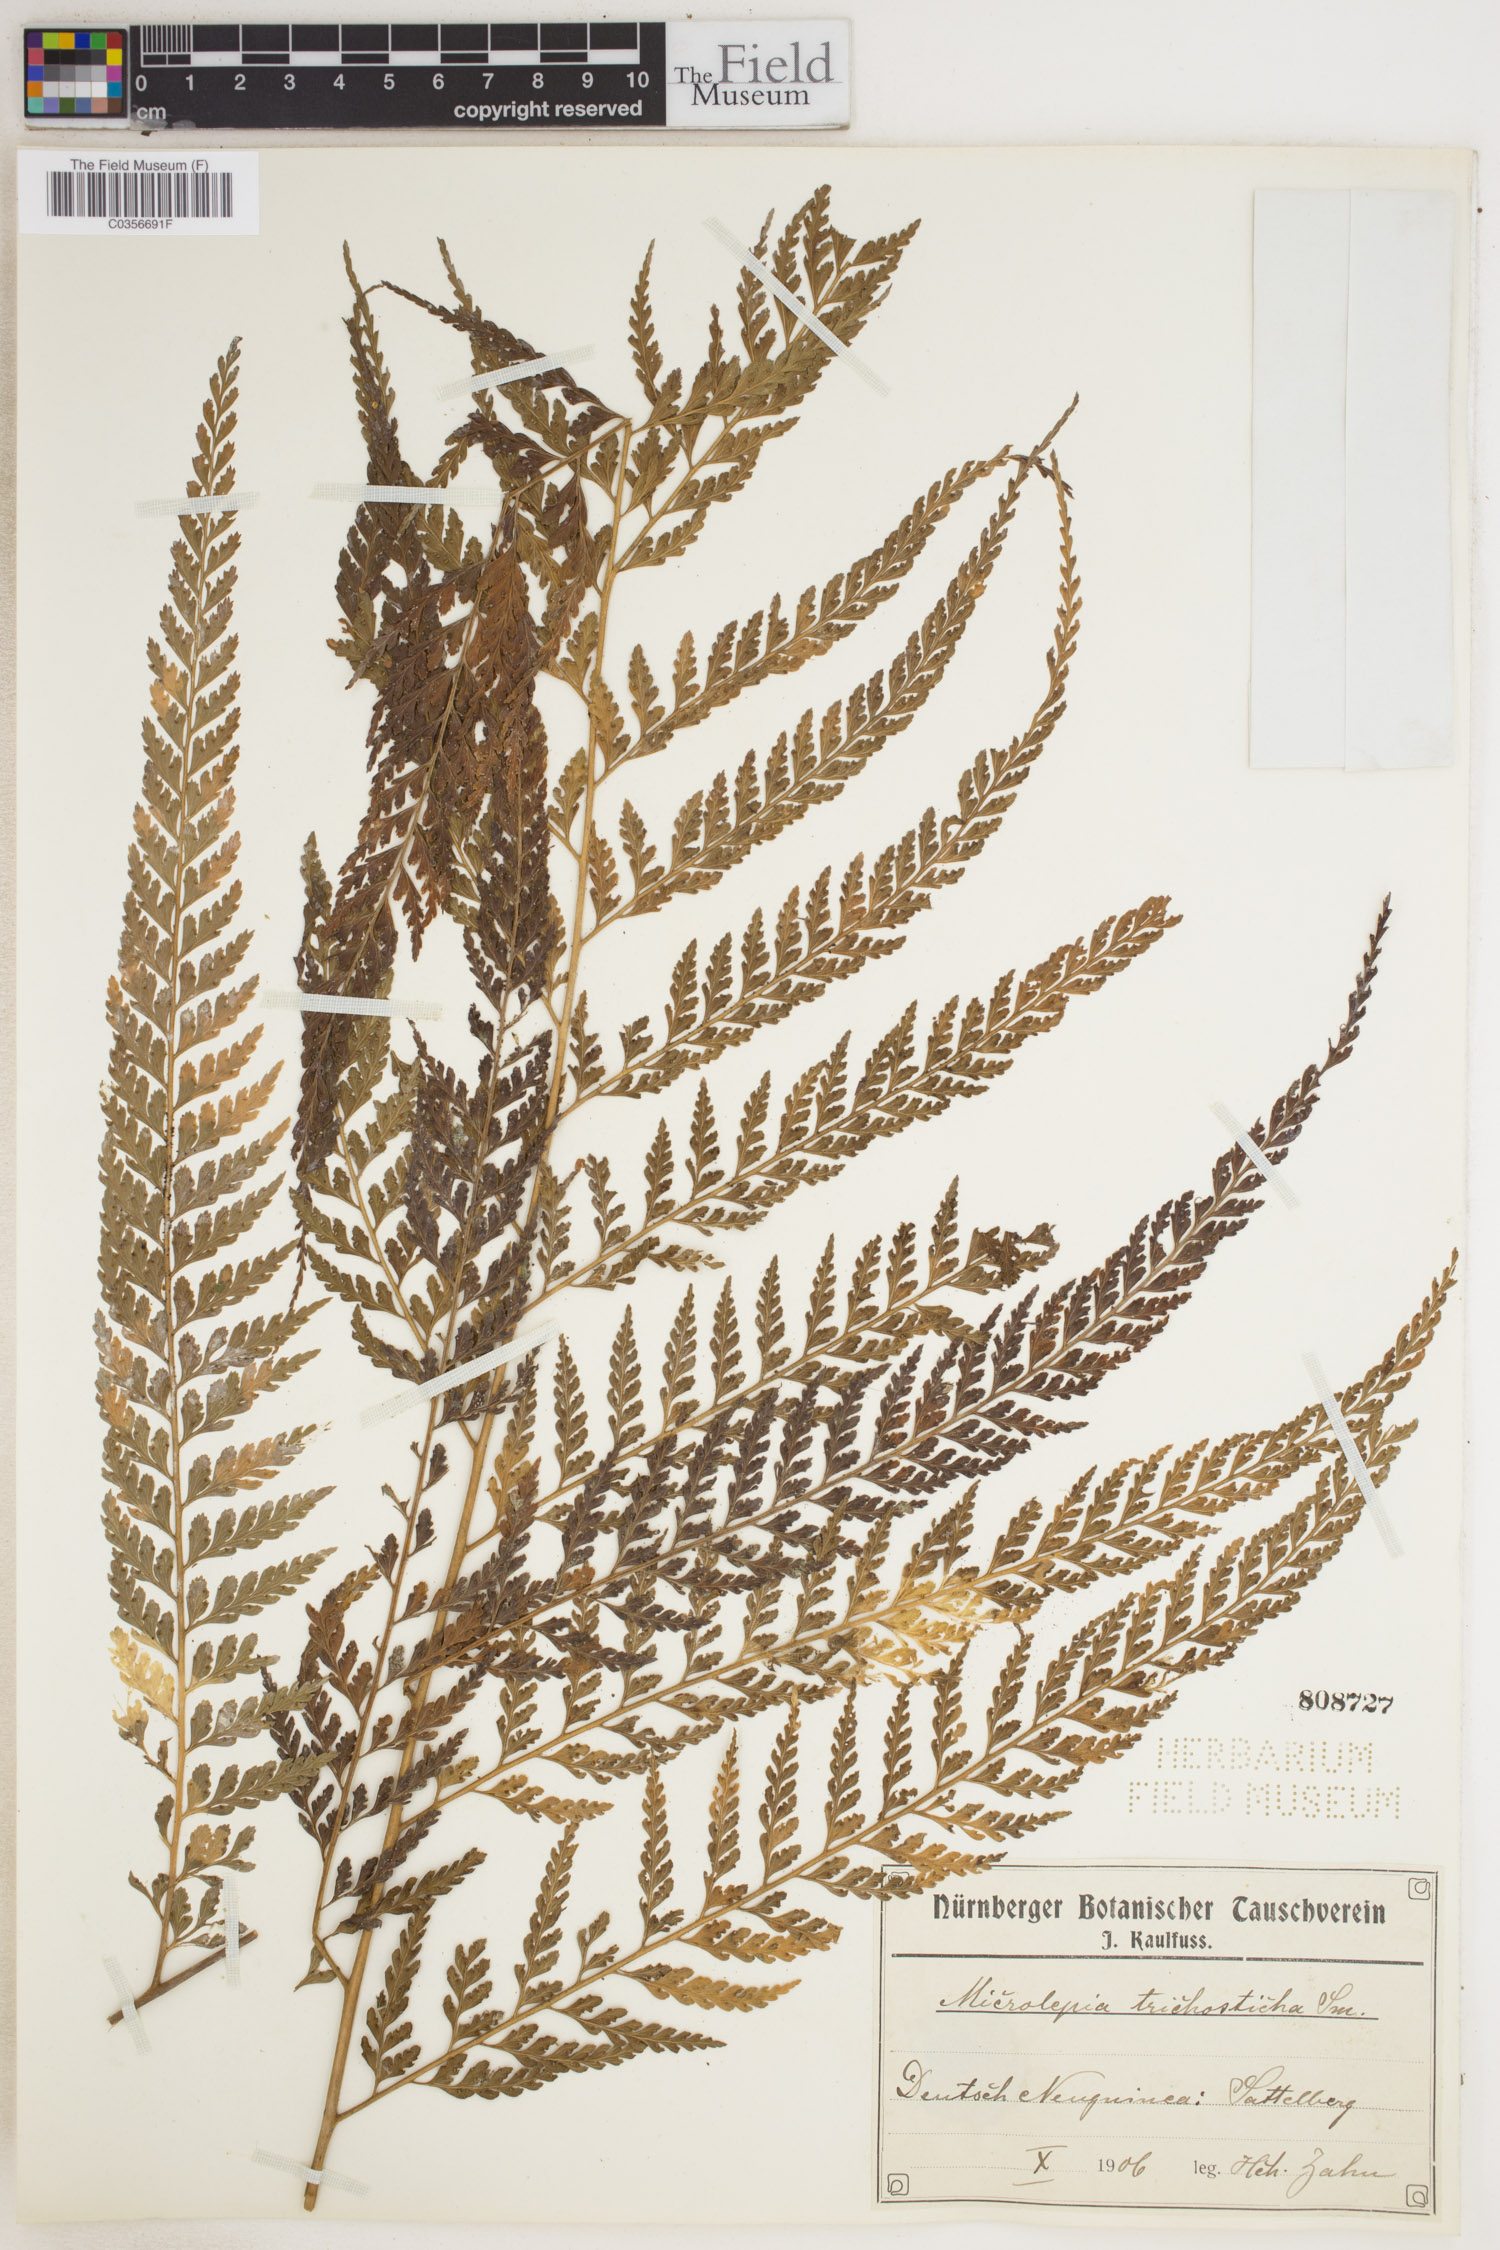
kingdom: Plantae
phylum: Tracheophyta
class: Polypodiopsida
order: Polypodiales
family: Dennstaedtiaceae
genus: Microlepia
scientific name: Microlepia
